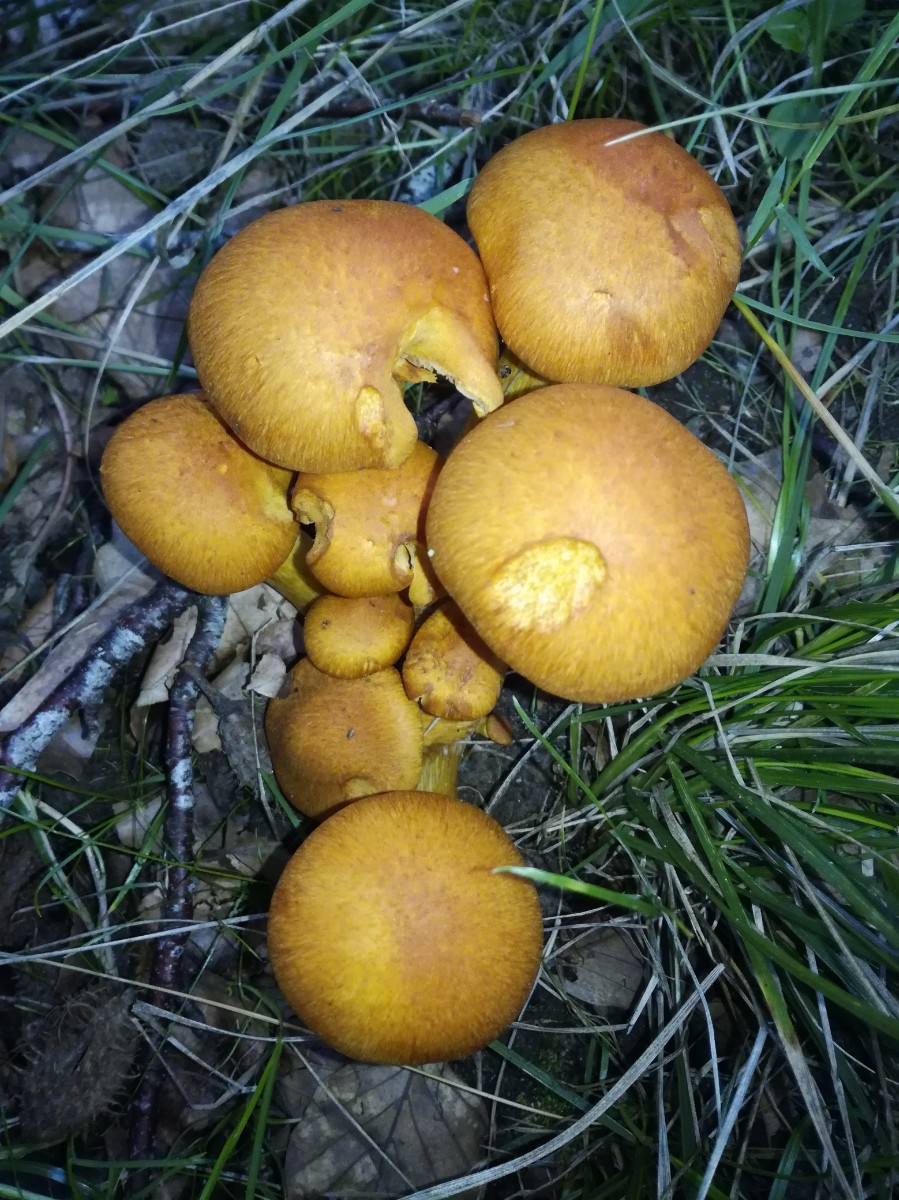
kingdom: Fungi
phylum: Basidiomycota
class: Agaricomycetes
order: Agaricales
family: Hymenogastraceae
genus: Gymnopilus
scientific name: Gymnopilus spectabilis
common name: fibret flammehat
